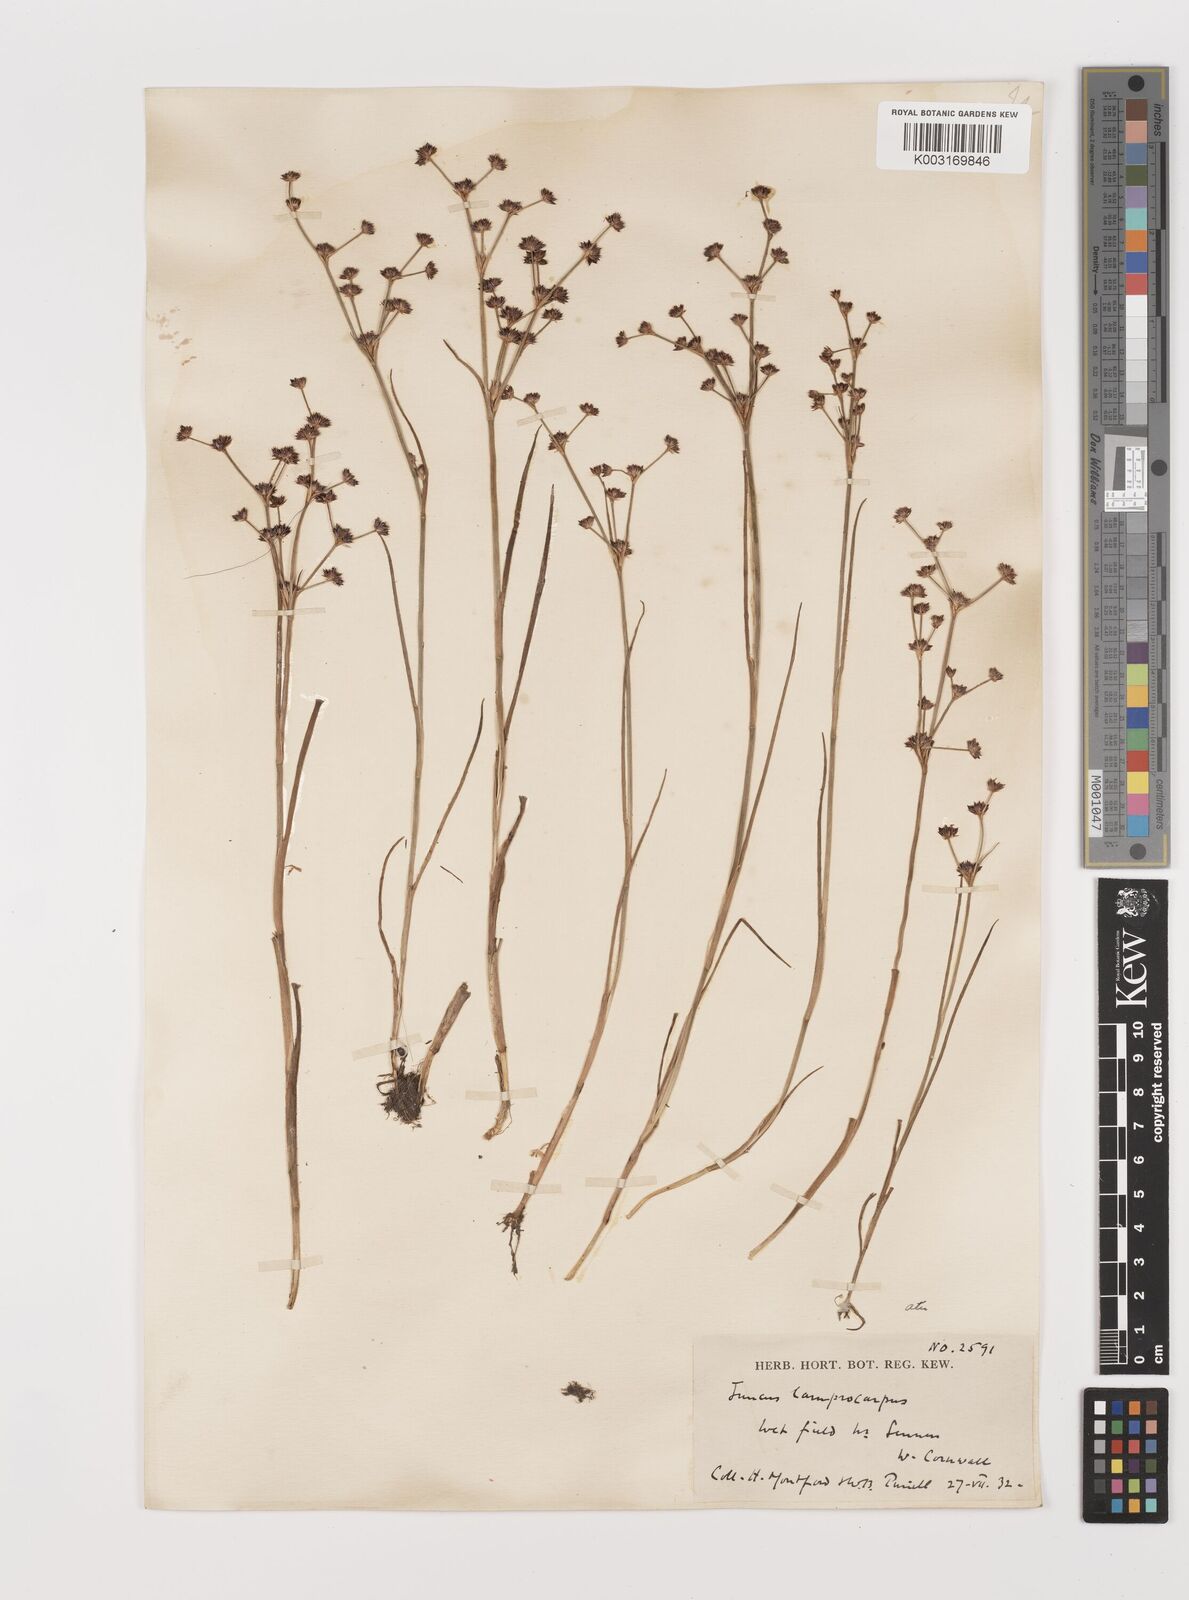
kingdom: Plantae
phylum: Tracheophyta
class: Liliopsida
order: Poales
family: Juncaceae
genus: Juncus
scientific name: Juncus articulatus
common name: Jointed rush
